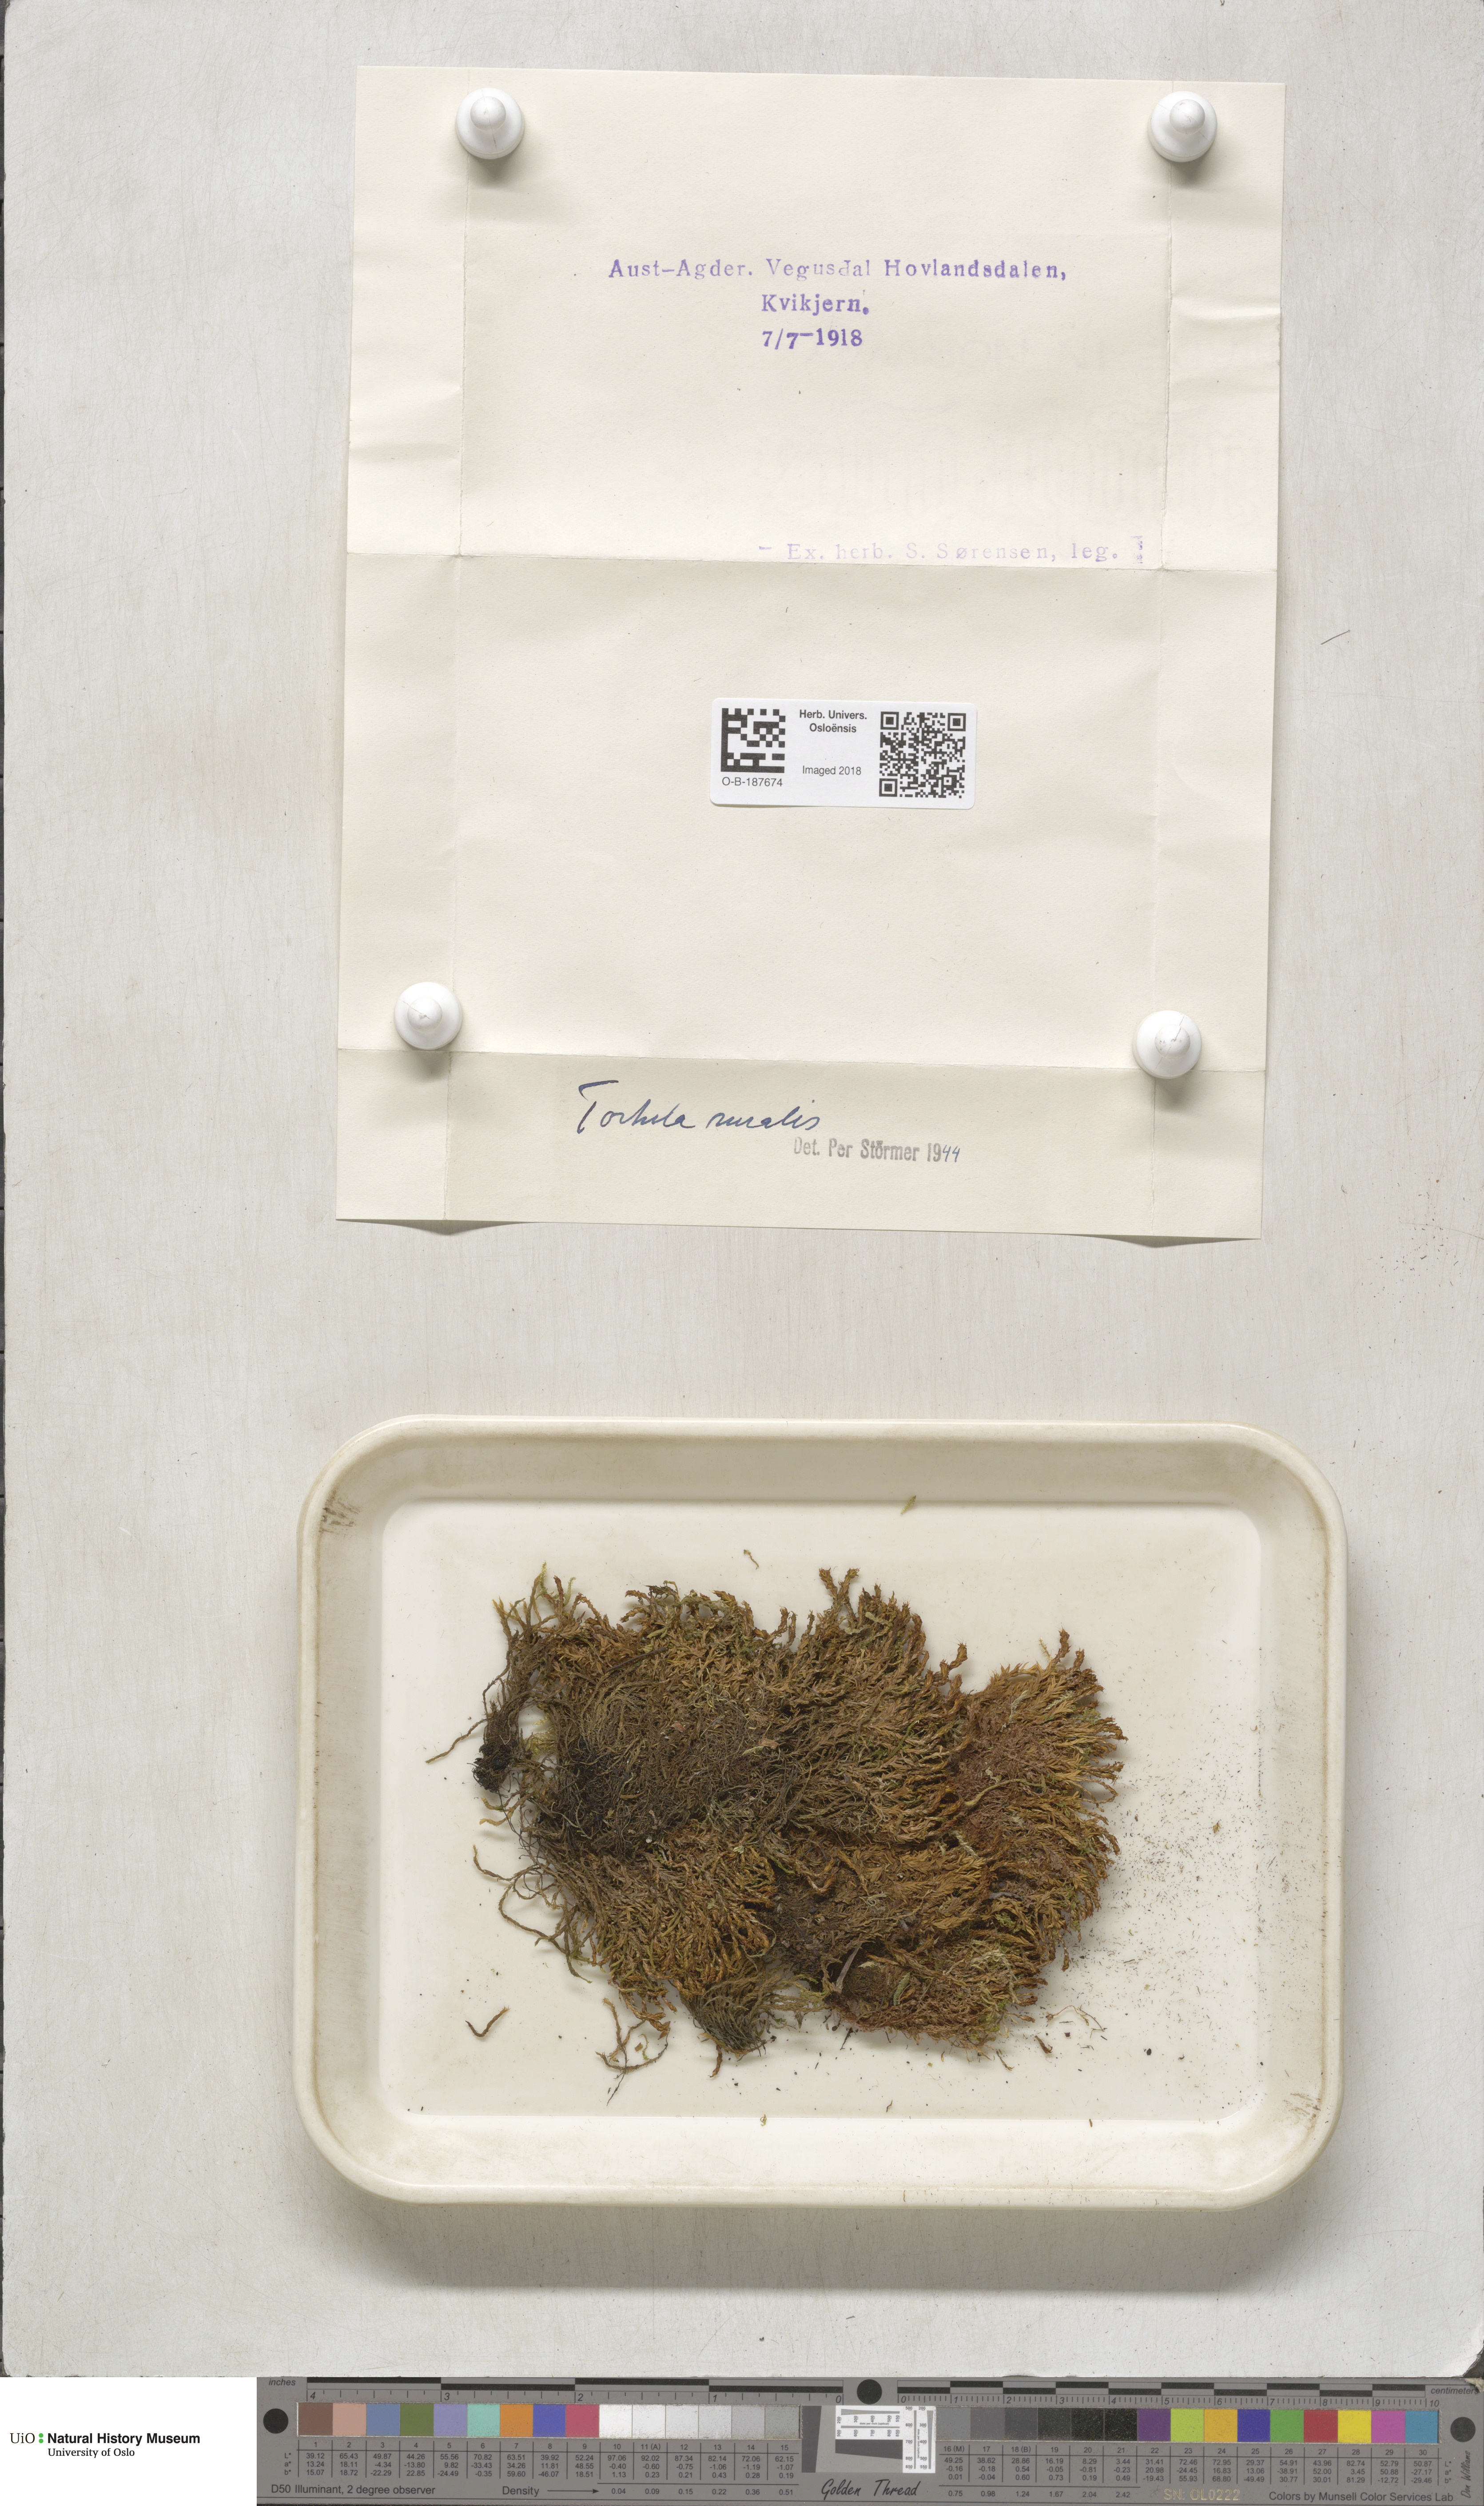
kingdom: Plantae
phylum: Bryophyta
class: Bryopsida
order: Pottiales
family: Pottiaceae
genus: Syntrichia
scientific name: Syntrichia ruralis
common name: Sidewalk screw moss
